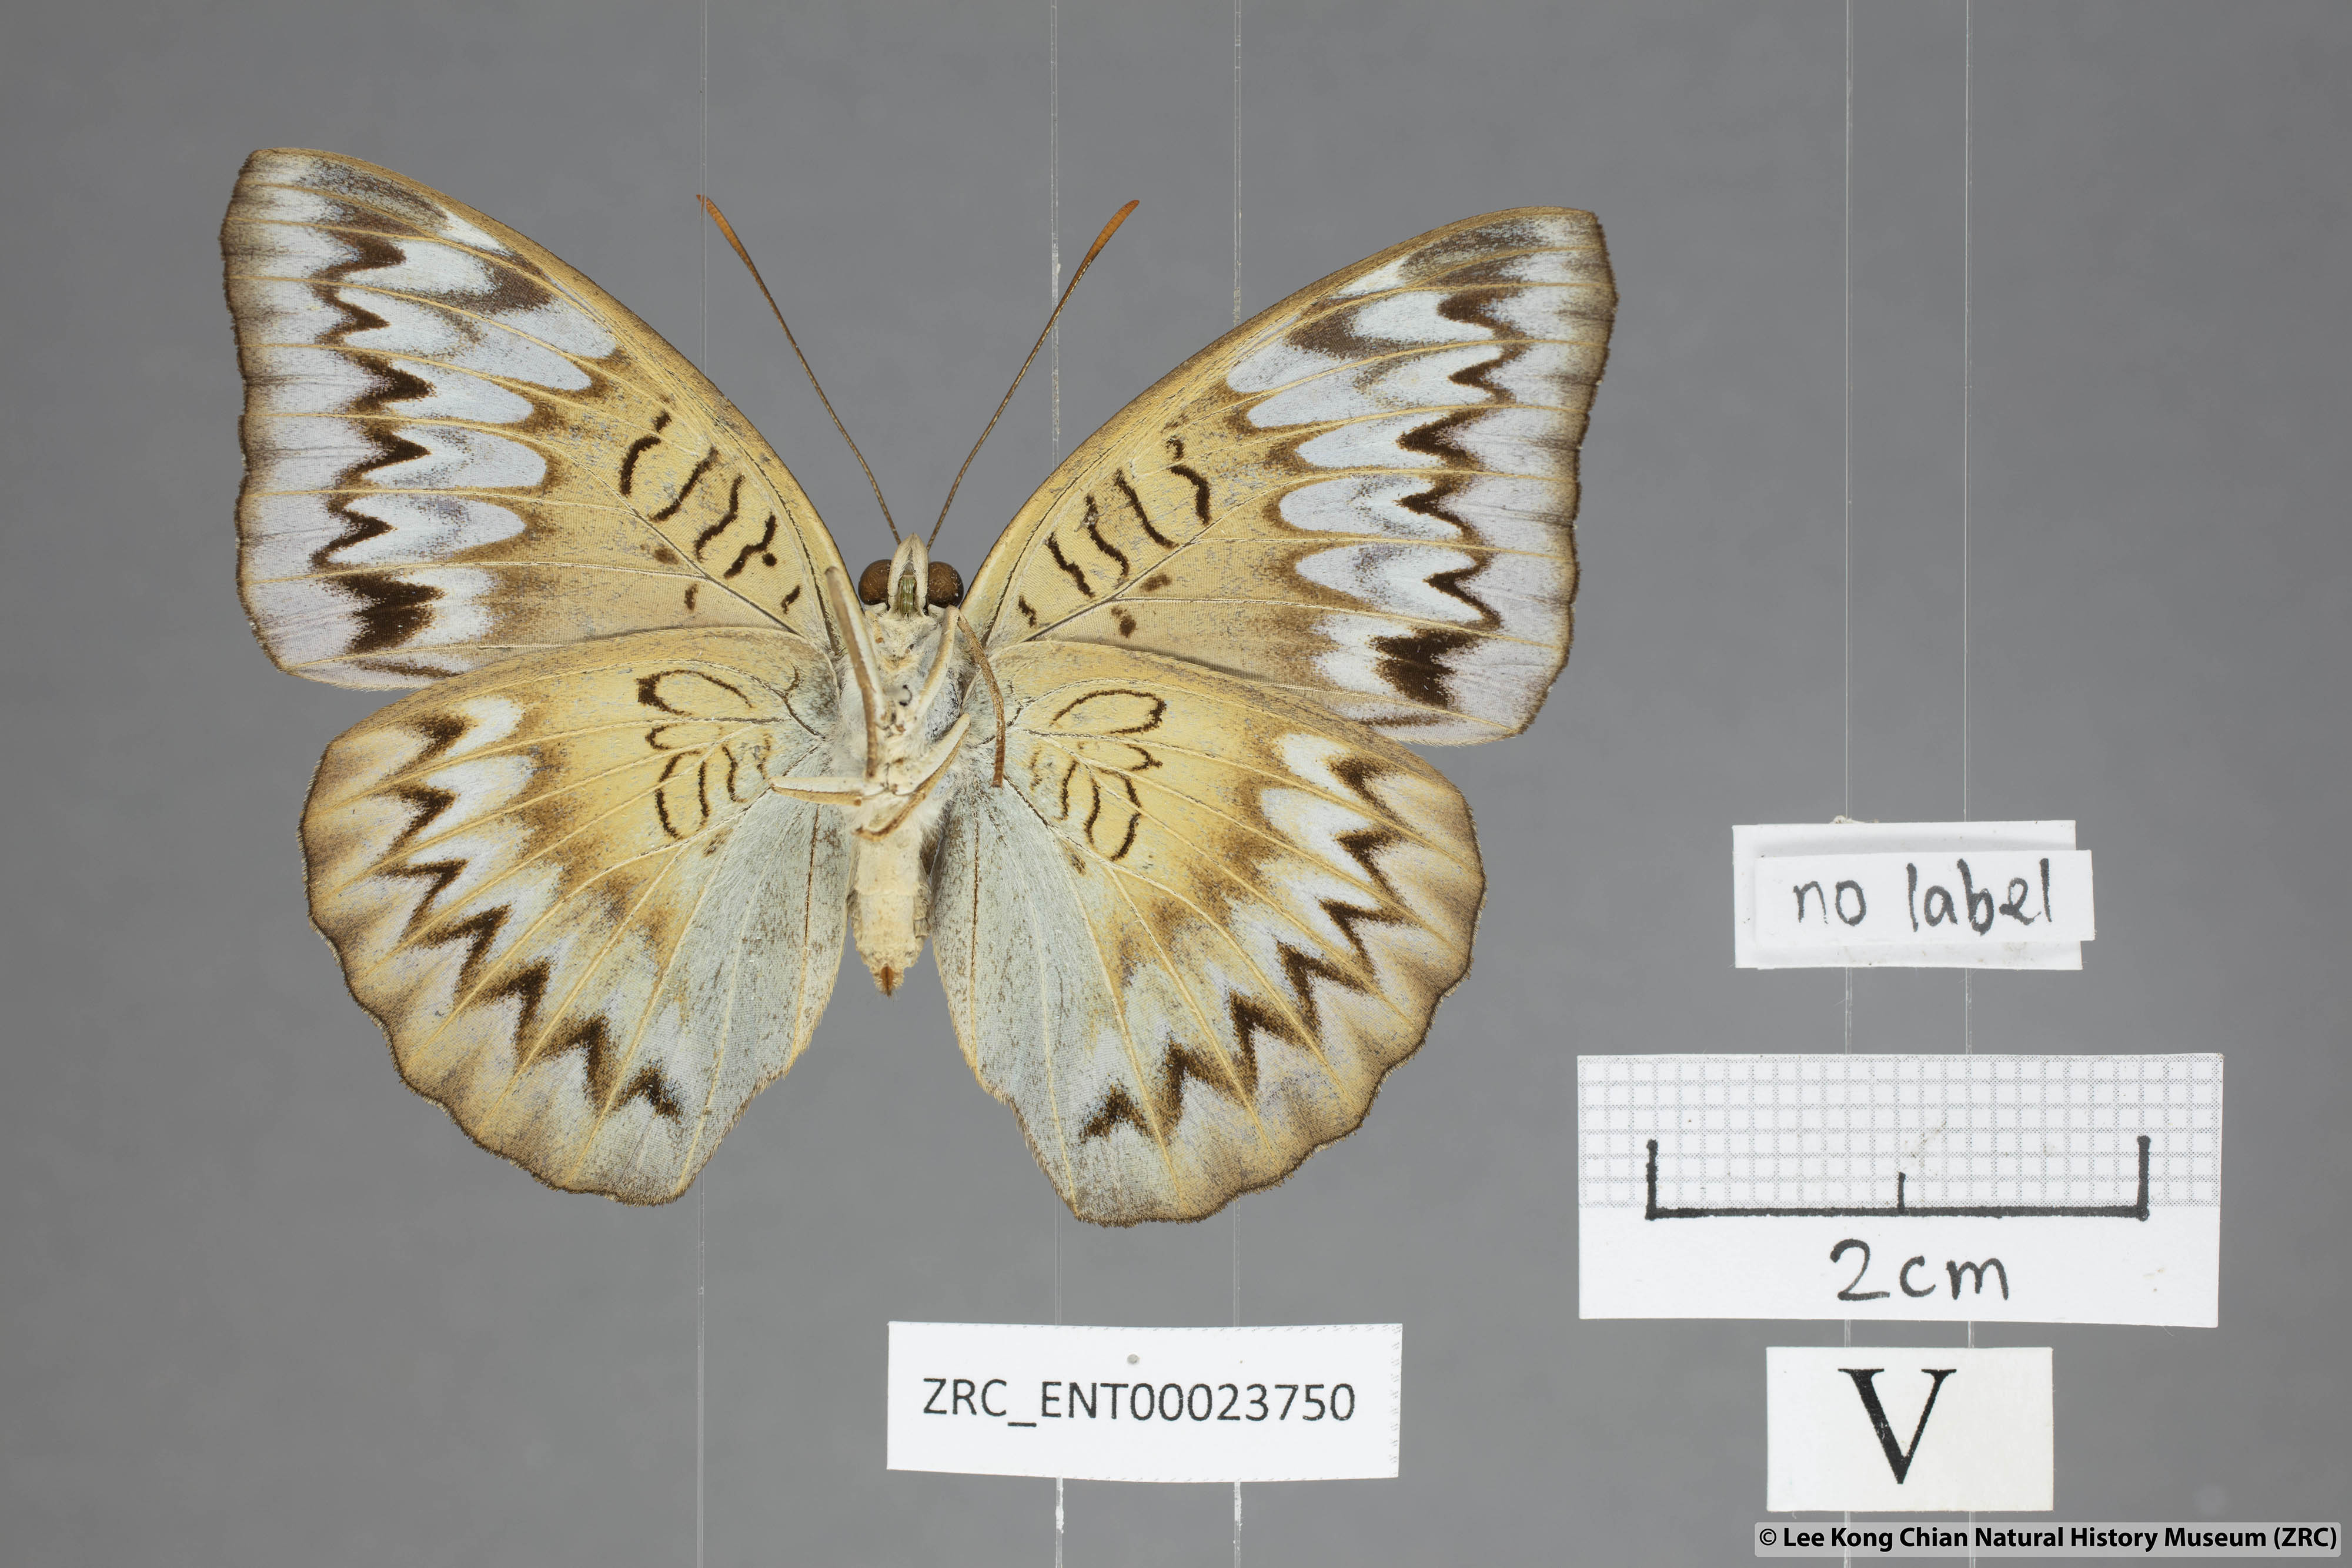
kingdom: Animalia
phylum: Arthropoda
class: Insecta
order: Lepidoptera
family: Nymphalidae
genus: Euthalia
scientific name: Euthalia monina
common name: Powdered baron
